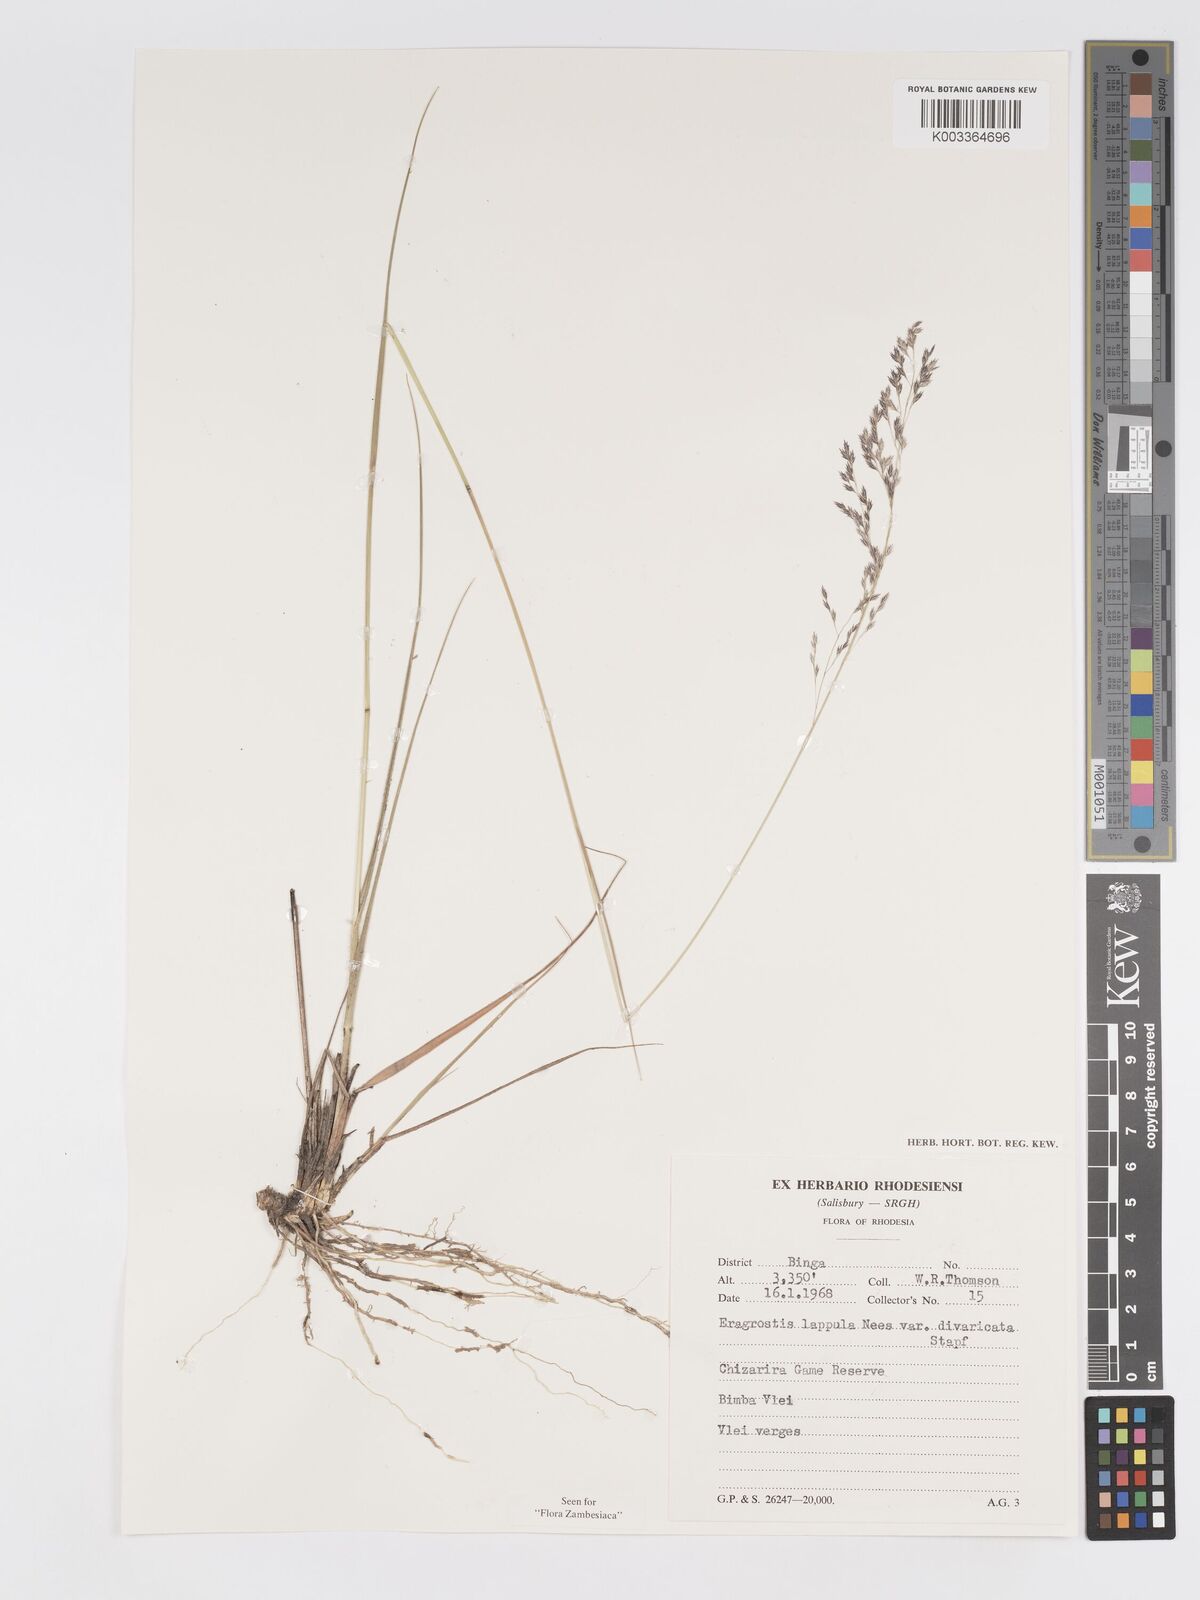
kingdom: Plantae
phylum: Tracheophyta
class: Liliopsida
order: Poales
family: Poaceae
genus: Eragrostis
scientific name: Eragrostis lappula
